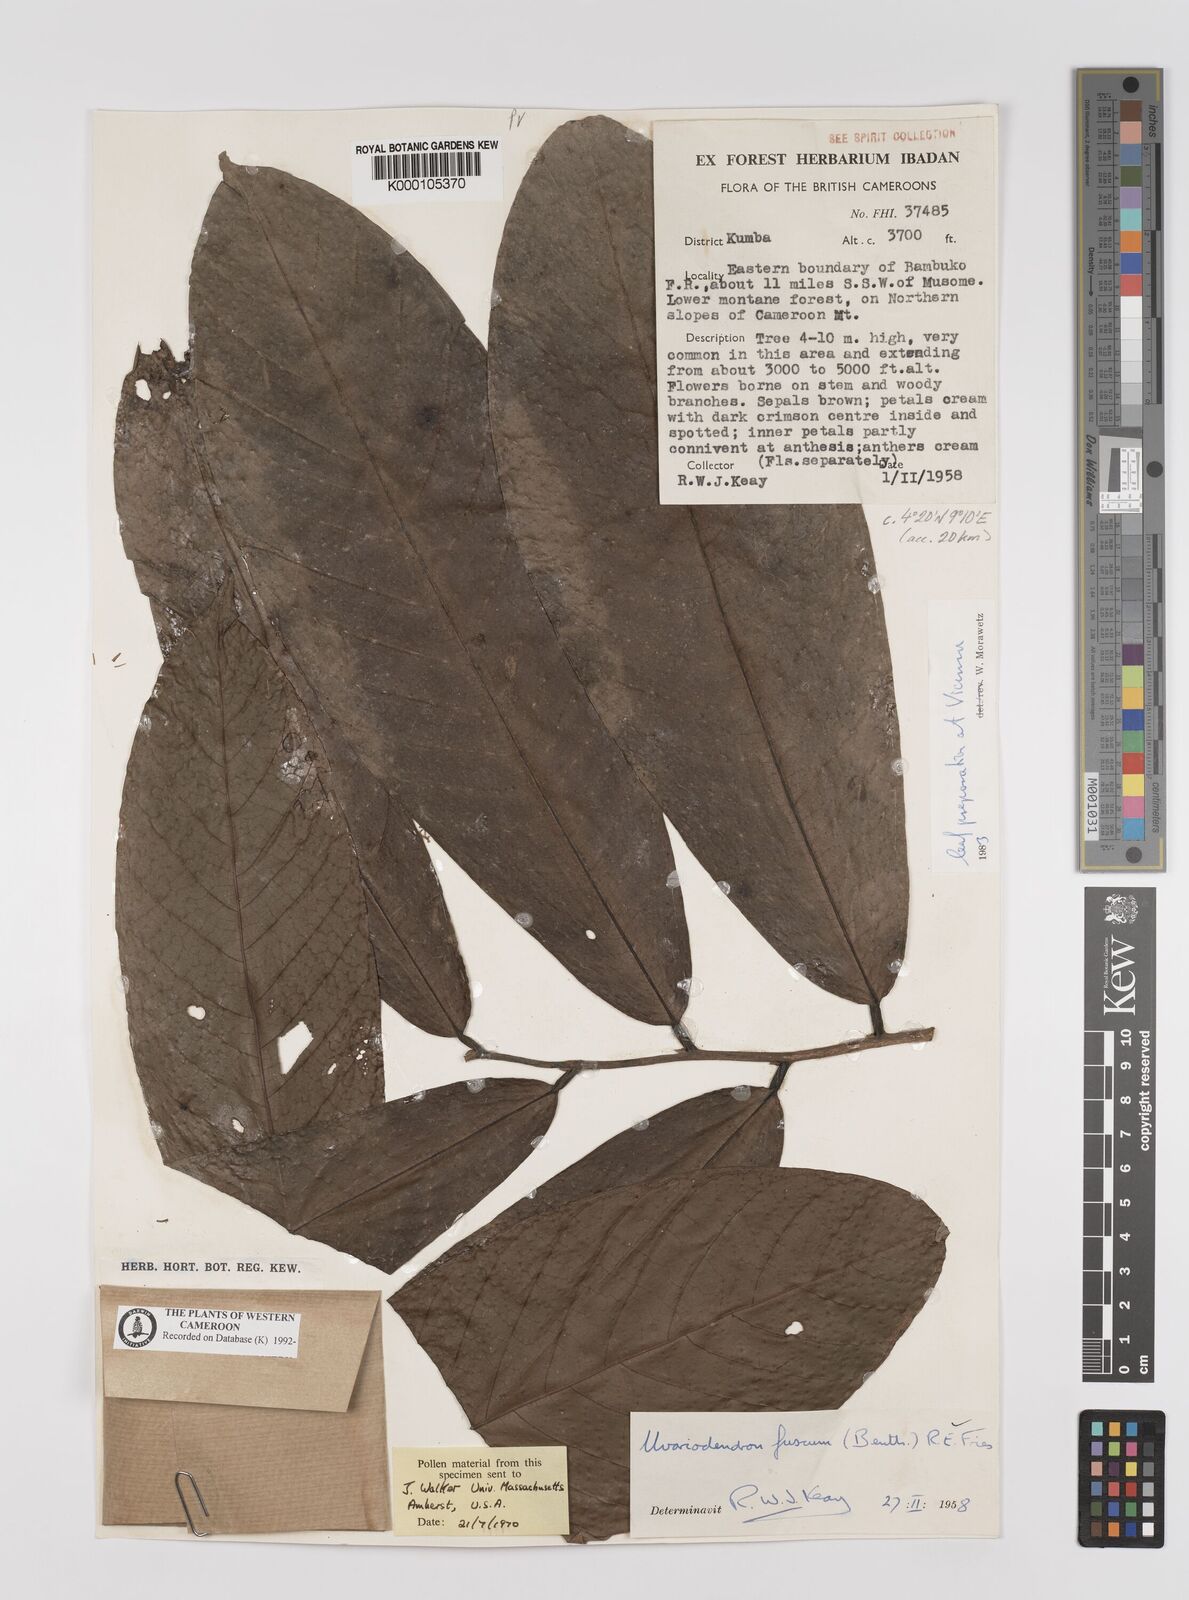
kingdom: Plantae
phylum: Tracheophyta
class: Magnoliopsida
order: Magnoliales
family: Annonaceae
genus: Uvariodendron
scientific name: Uvariodendron fuscum
